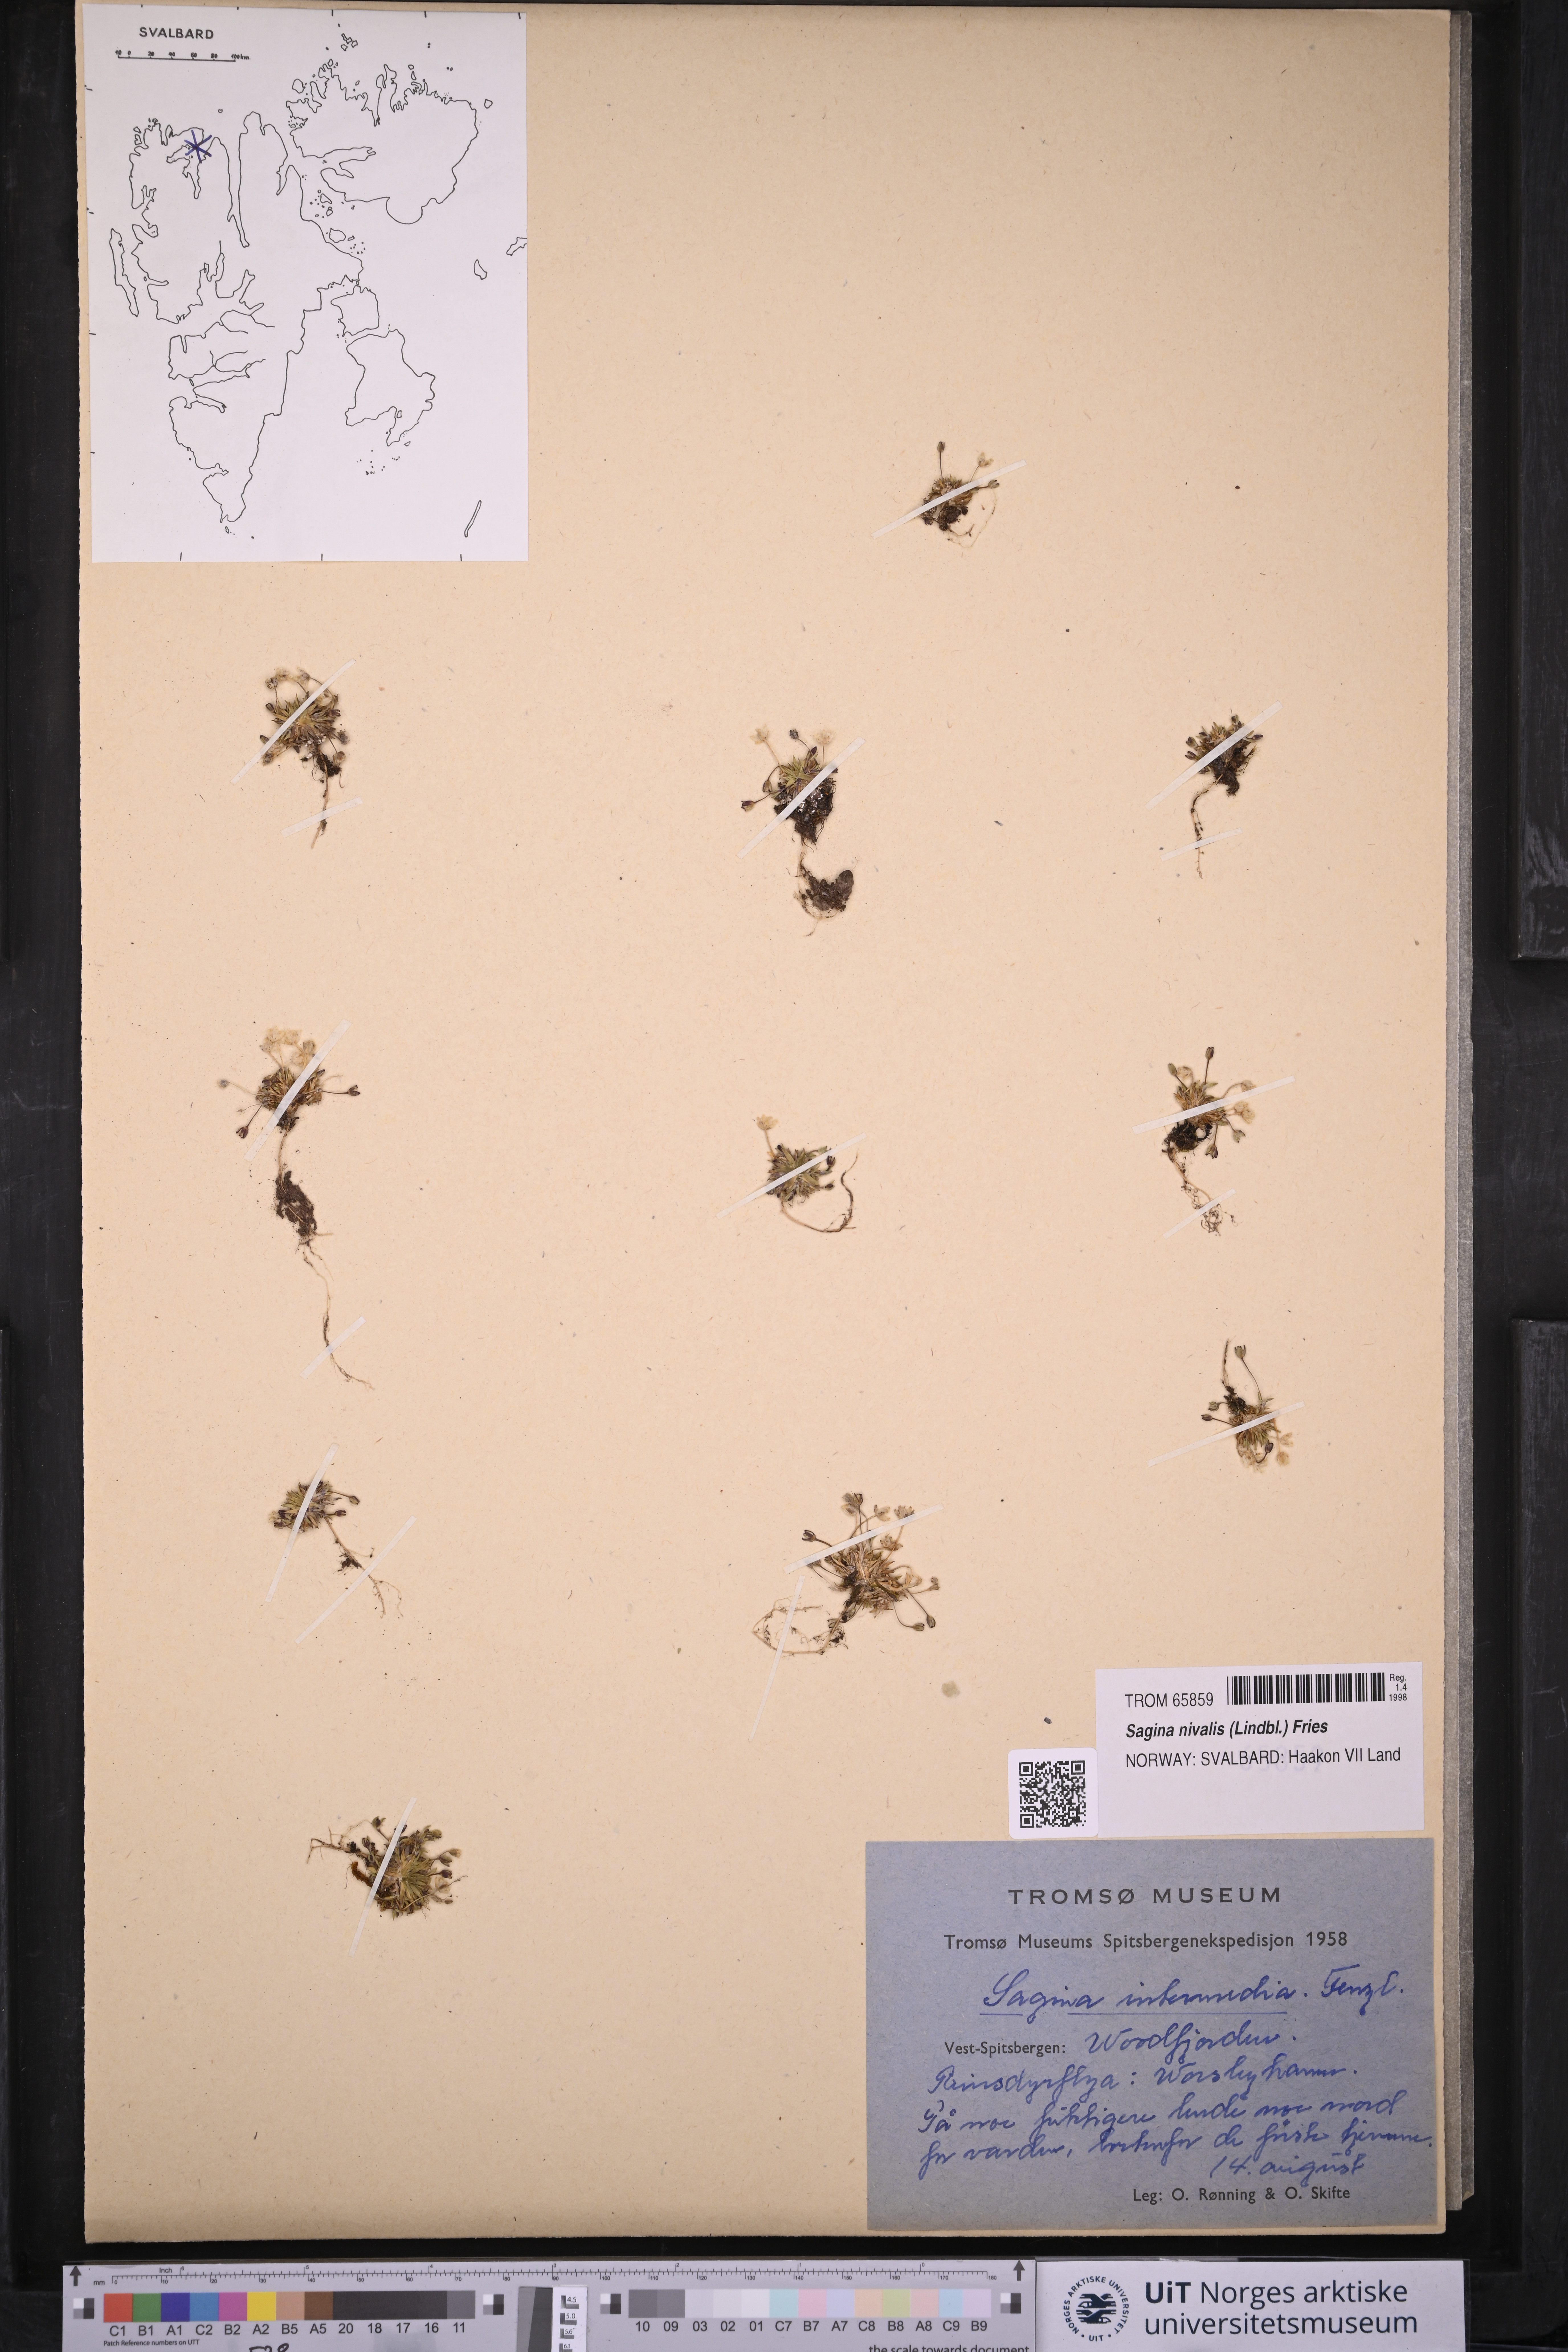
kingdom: Plantae
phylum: Tracheophyta
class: Magnoliopsida
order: Caryophyllales
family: Caryophyllaceae
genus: Sagina
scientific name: Sagina nivalis
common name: Snow pearlwort
